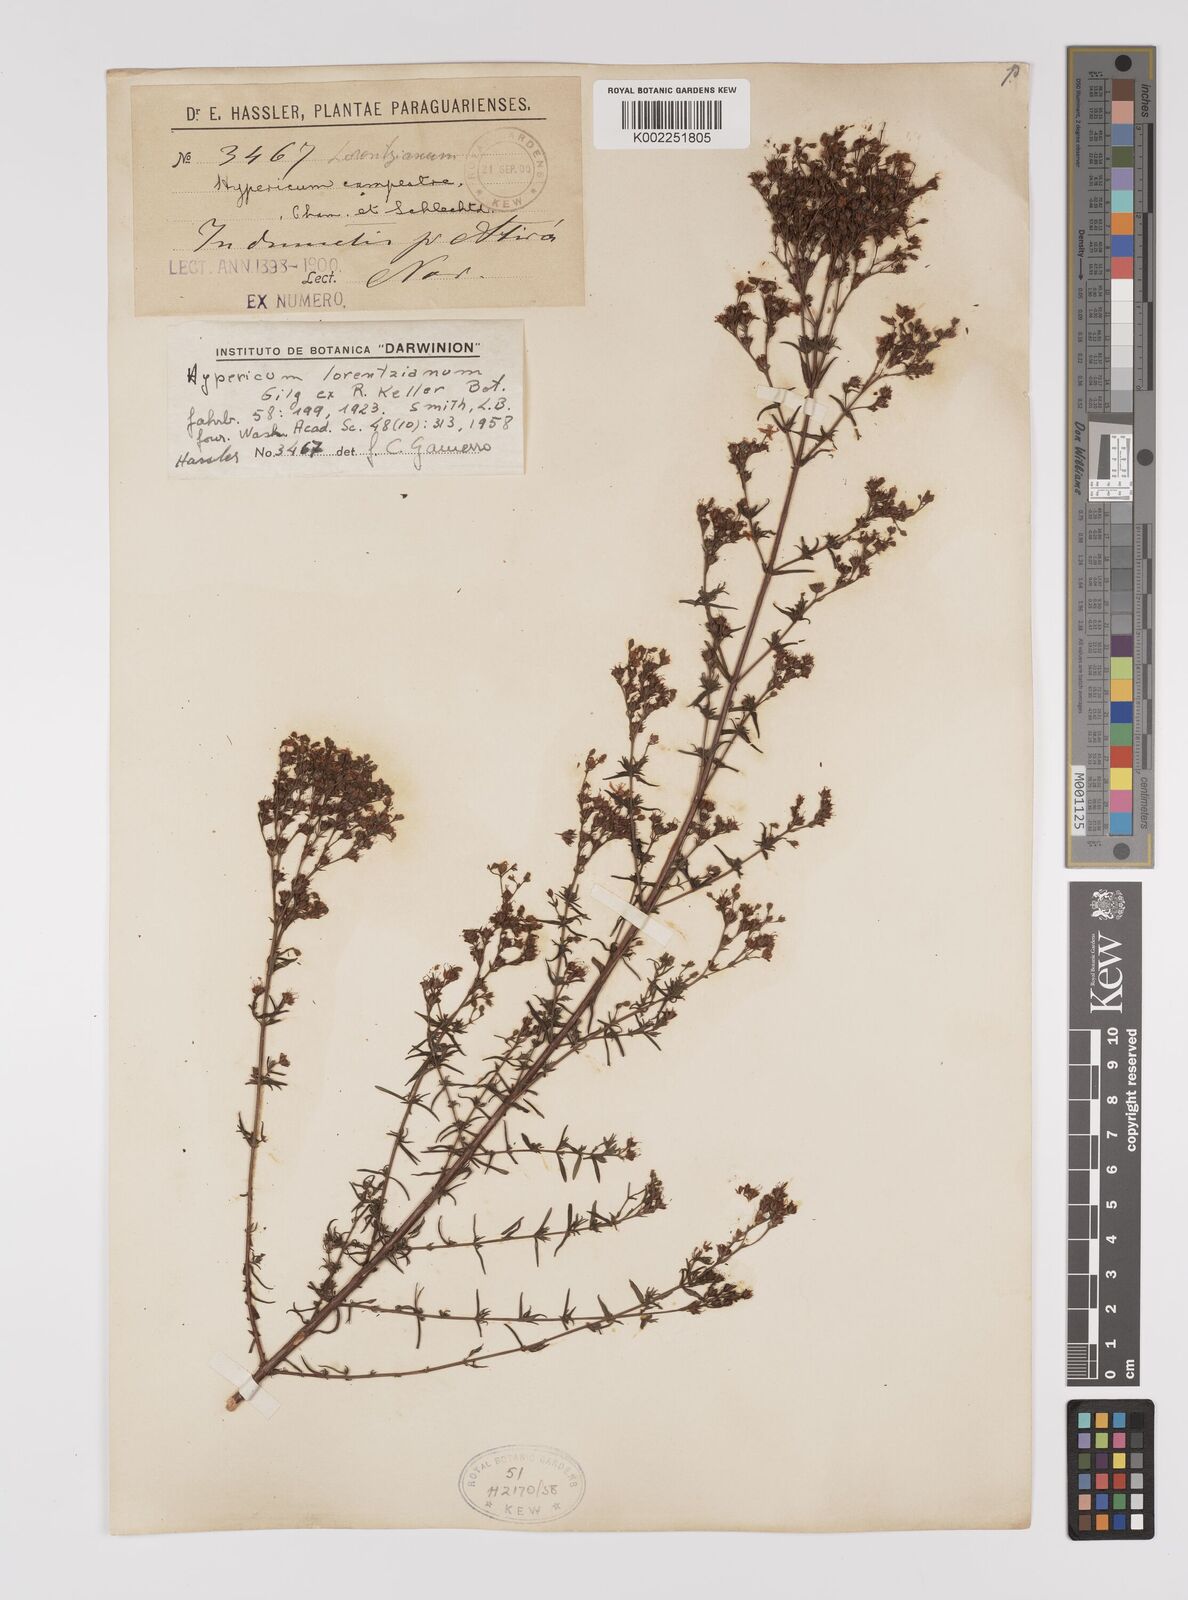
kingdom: Plantae
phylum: Tracheophyta
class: Magnoliopsida
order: Malpighiales
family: Hypericaceae
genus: Hypericum
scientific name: Hypericum lorentzianum
